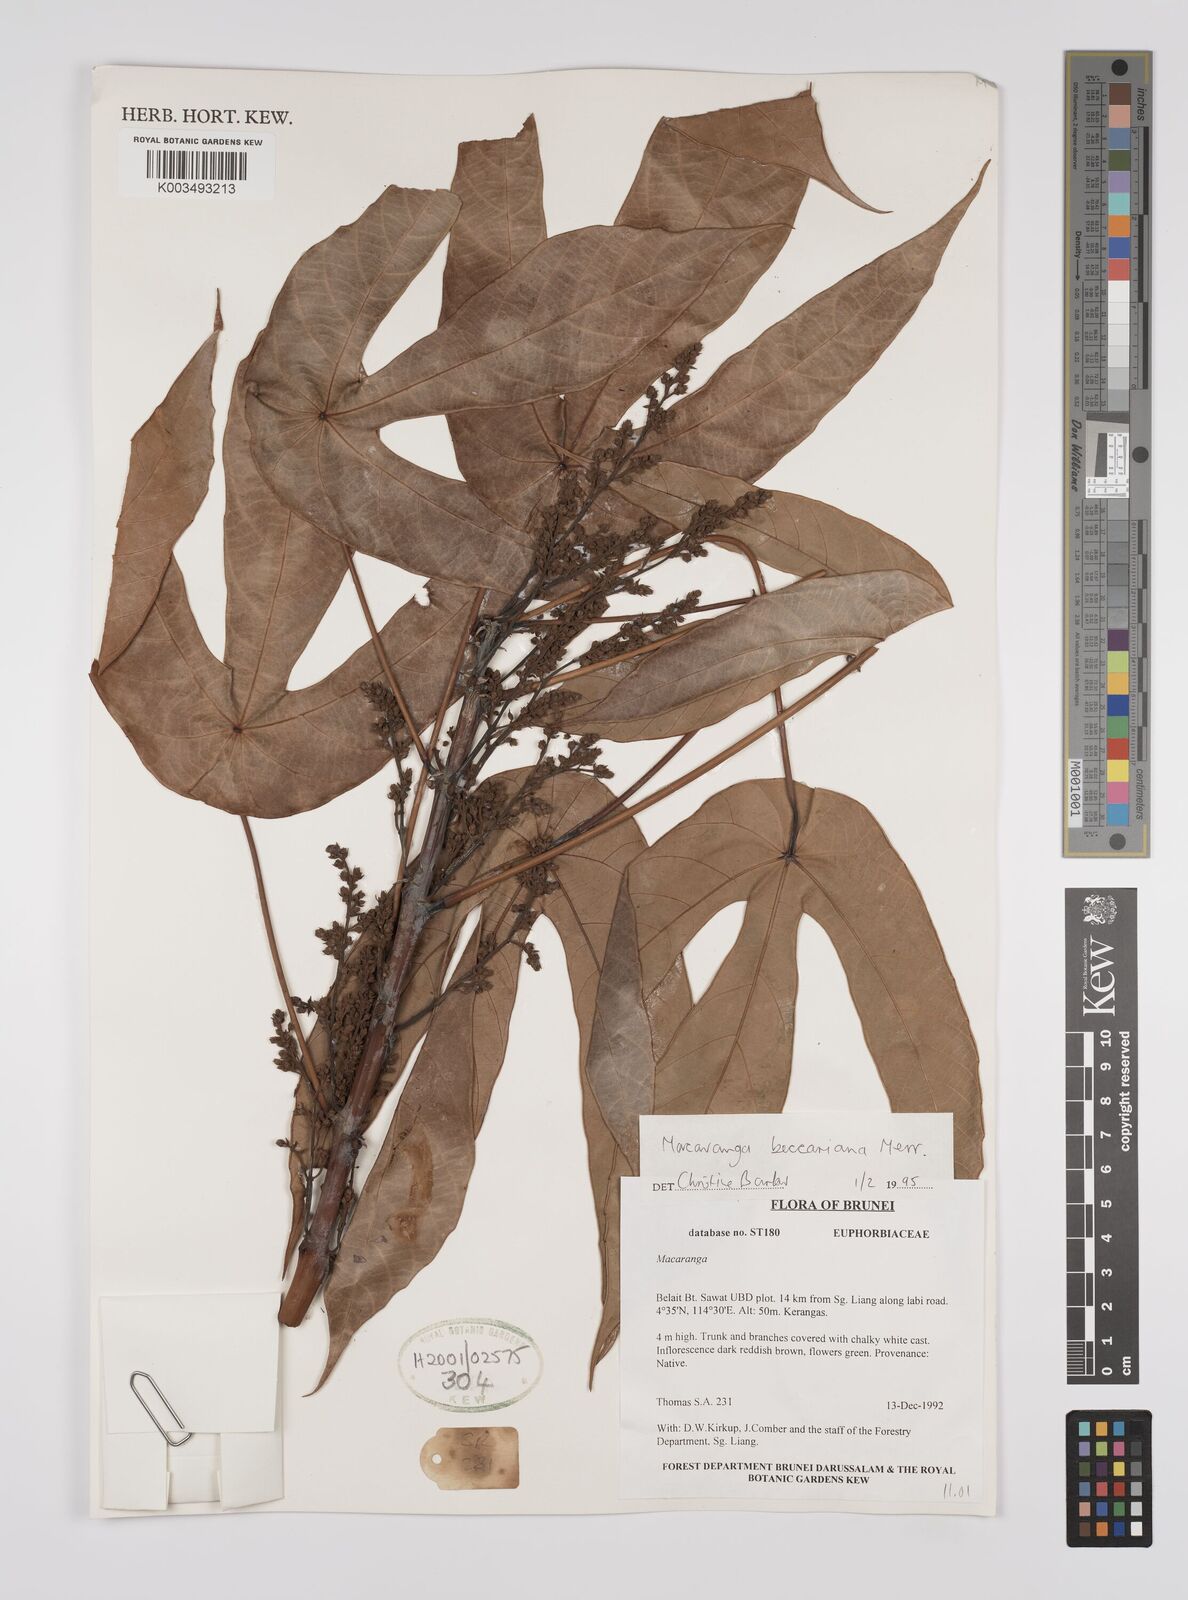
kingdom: Plantae
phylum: Tracheophyta
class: Magnoliopsida
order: Malpighiales
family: Euphorbiaceae
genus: Macaranga
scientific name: Macaranga beccariana
